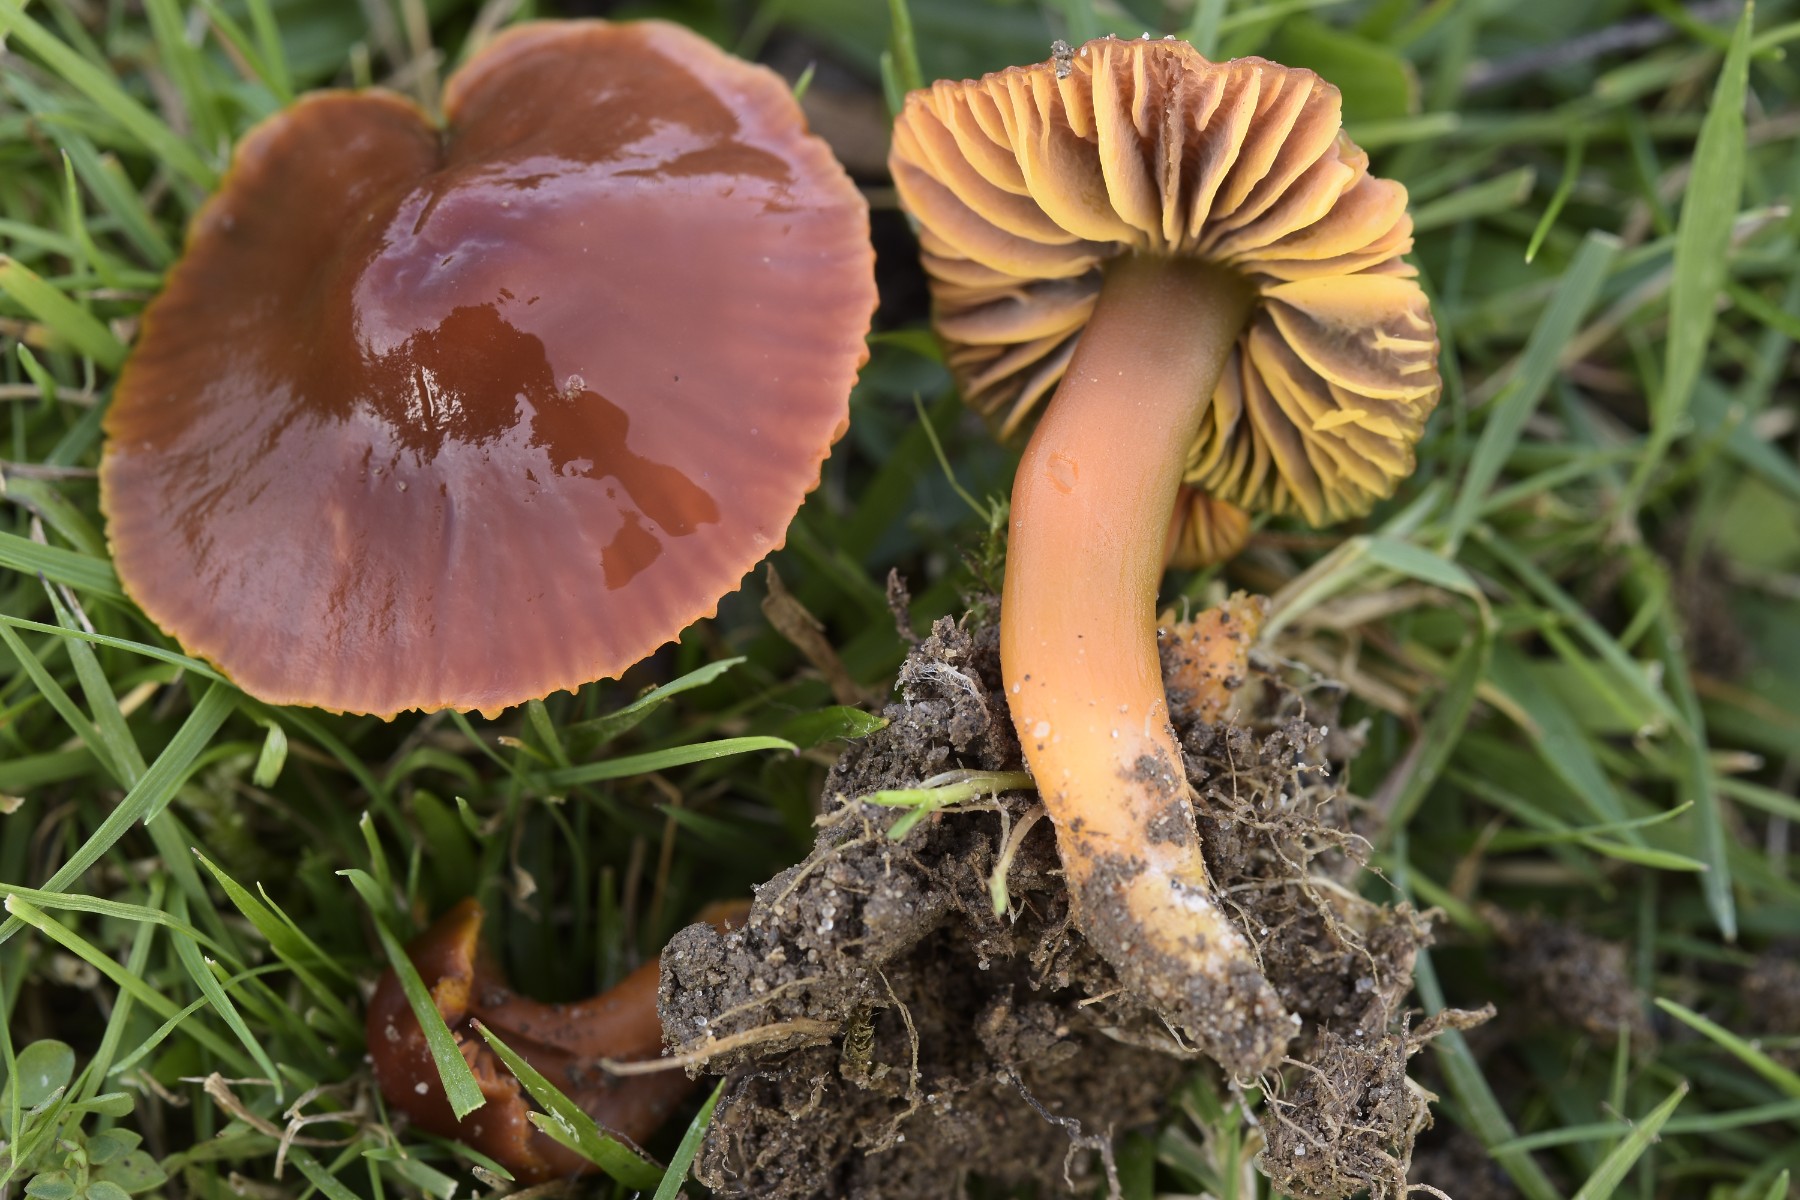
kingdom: Fungi
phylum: Basidiomycota
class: Agaricomycetes
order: Agaricales
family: Hygrophoraceae
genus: Gliophorus
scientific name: Gliophorus psittacinus
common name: Parrot wax-cap
